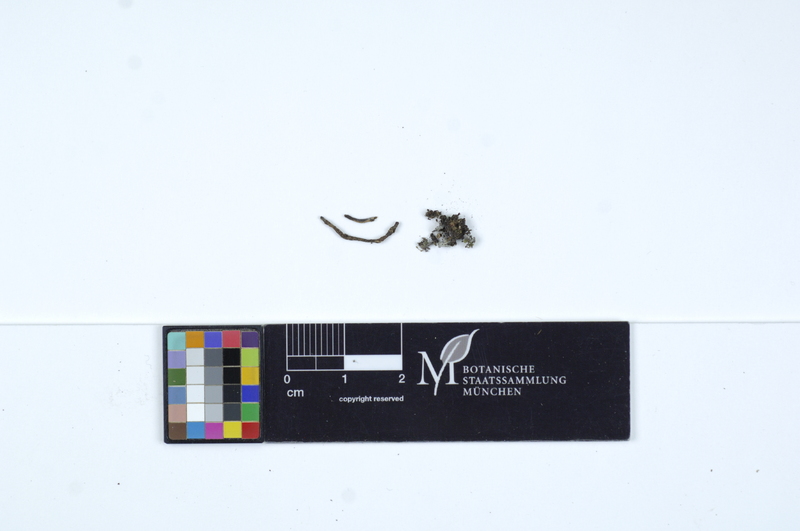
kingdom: Fungi
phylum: Basidiomycota
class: Agaricomycetes
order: Cantharellales
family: Tulasnellaceae
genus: Tulasnella
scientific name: Tulasnella deliquescens
